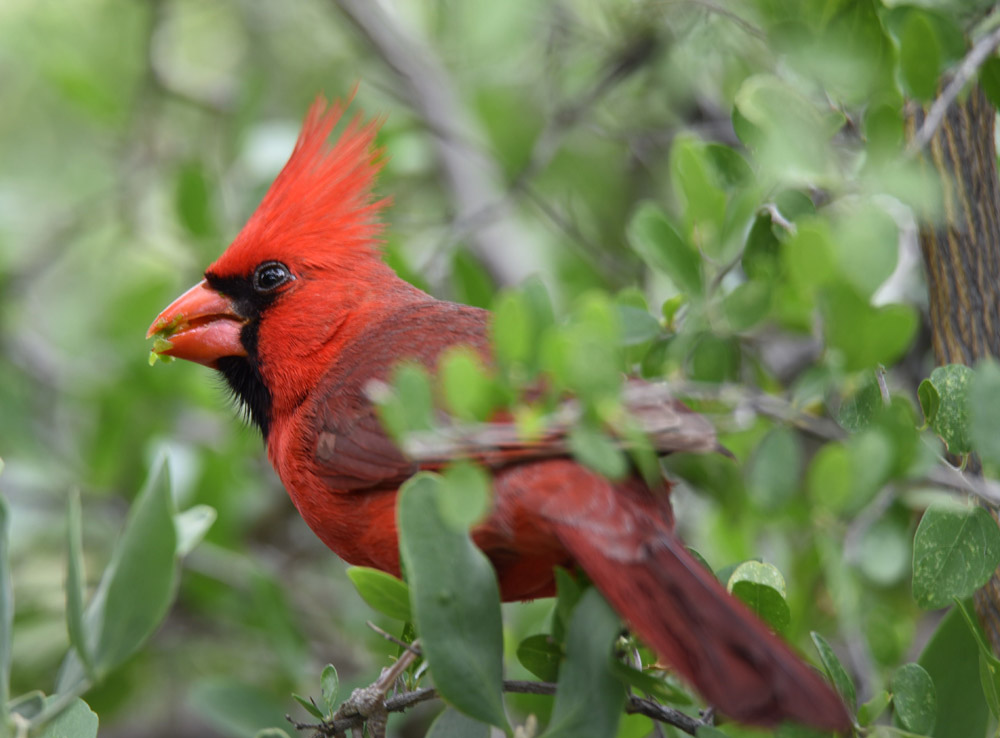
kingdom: Animalia
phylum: Chordata
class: Aves
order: Passeriformes
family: Cardinalidae
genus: Cardinalis
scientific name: Cardinalis cardinalis
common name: Northern cardinal
